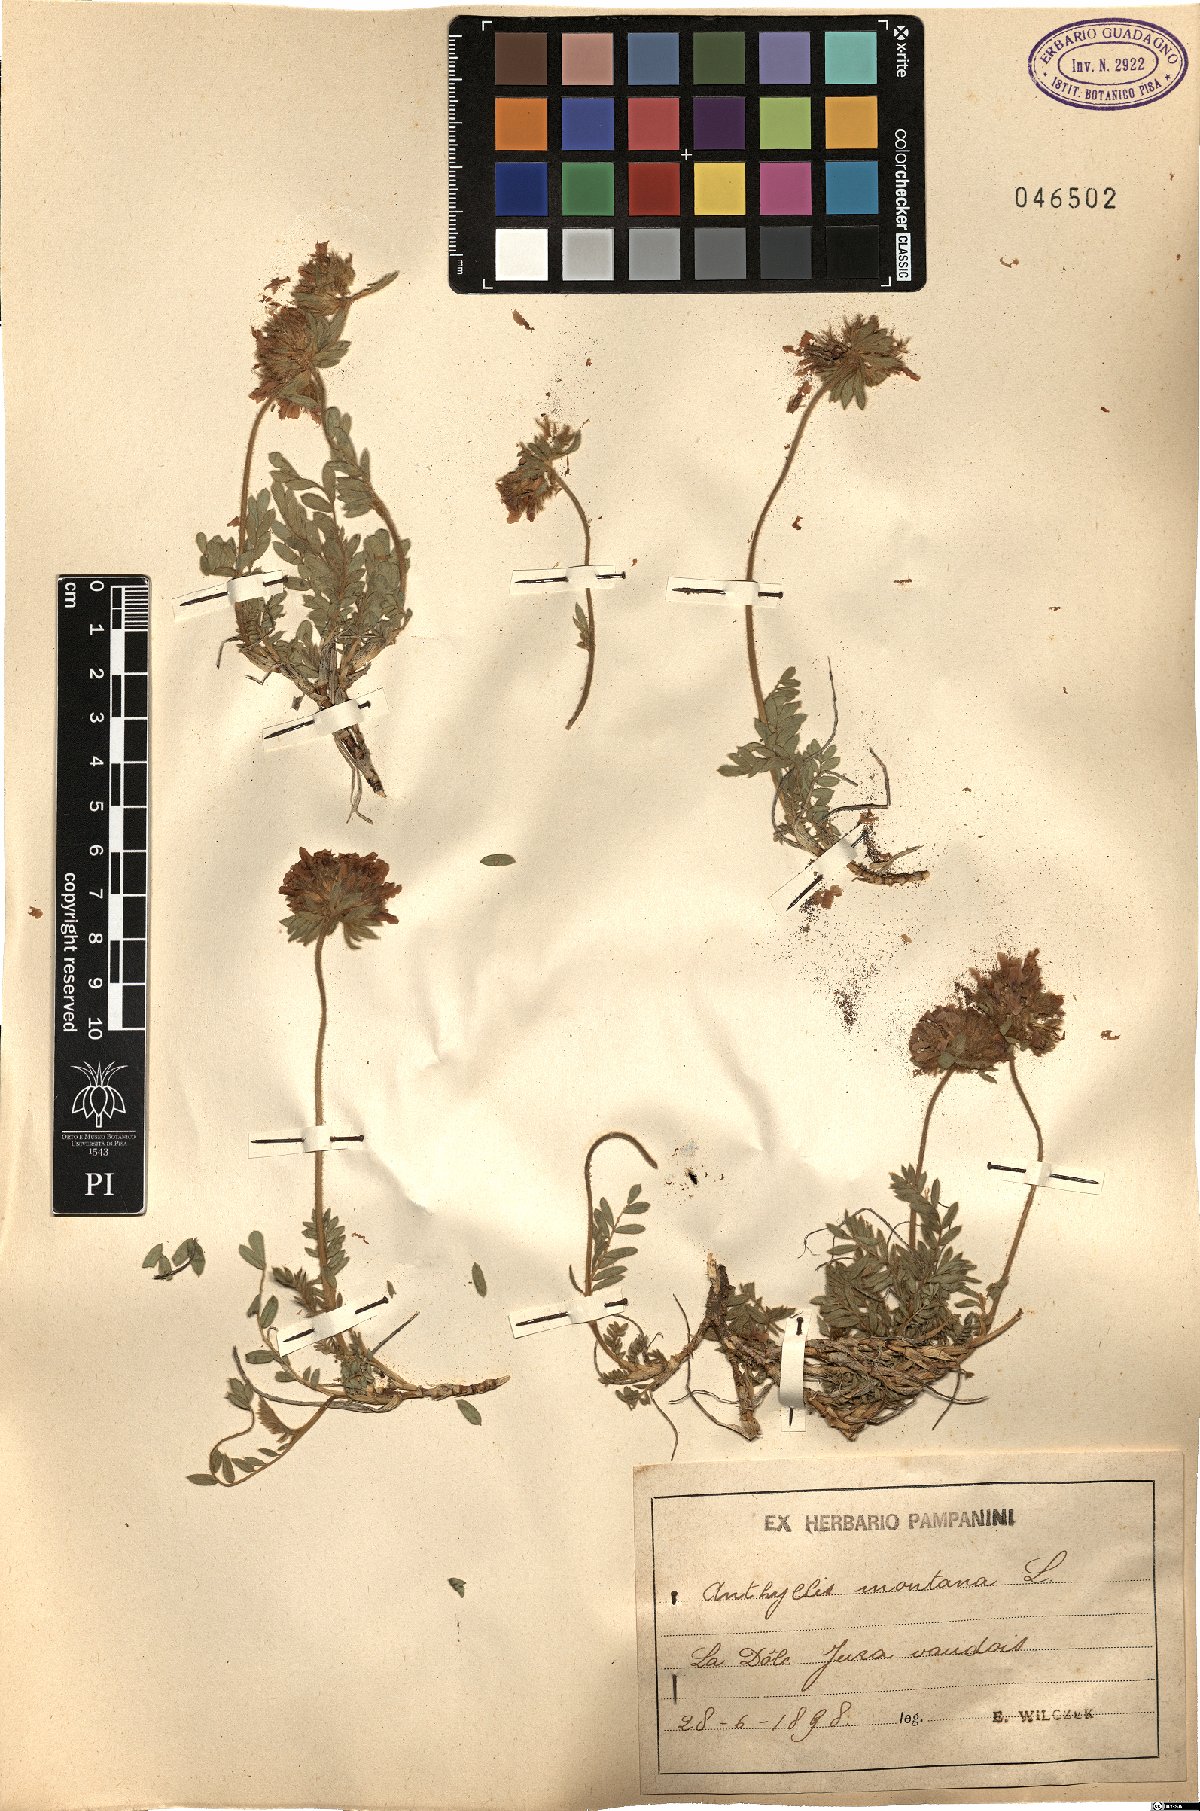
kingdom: Plantae
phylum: Tracheophyta
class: Magnoliopsida
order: Fabales
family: Fabaceae
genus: Anthyllis
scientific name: Anthyllis montana
